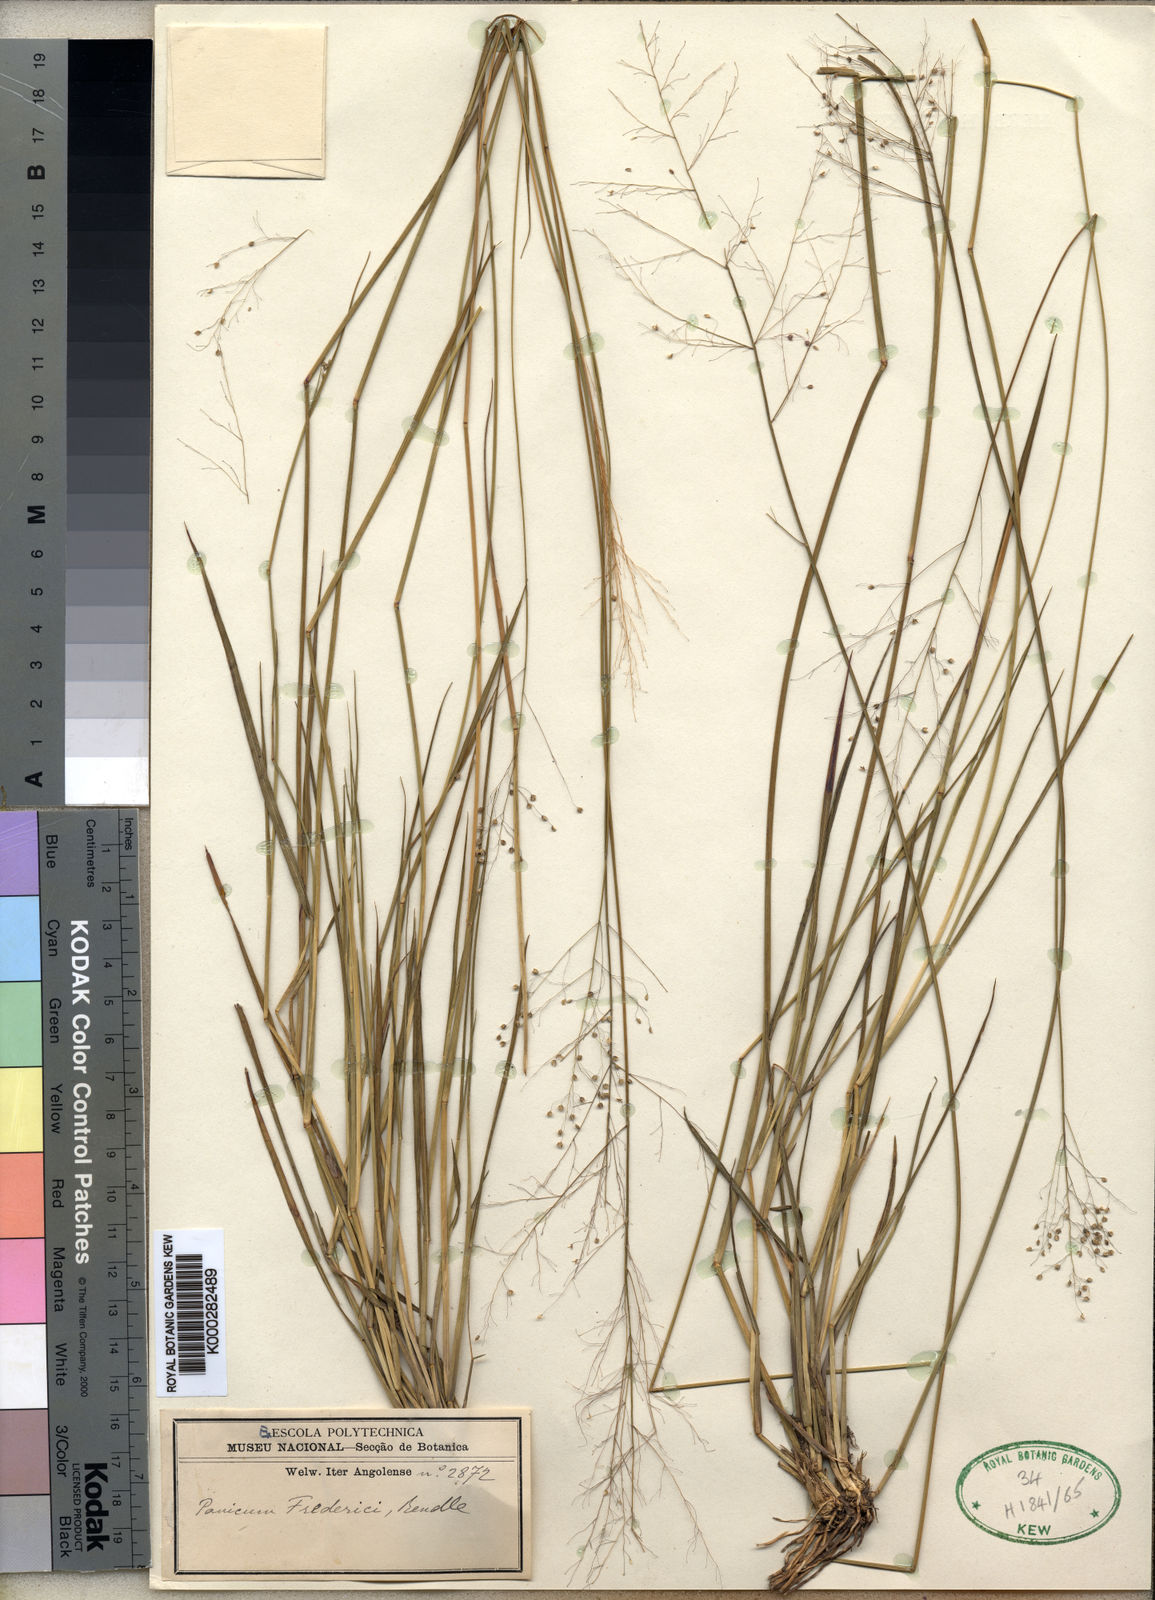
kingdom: Plantae
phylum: Tracheophyta
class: Liliopsida
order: Poales
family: Poaceae
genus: Trichanthecium
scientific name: Trichanthecium brazzavillense
